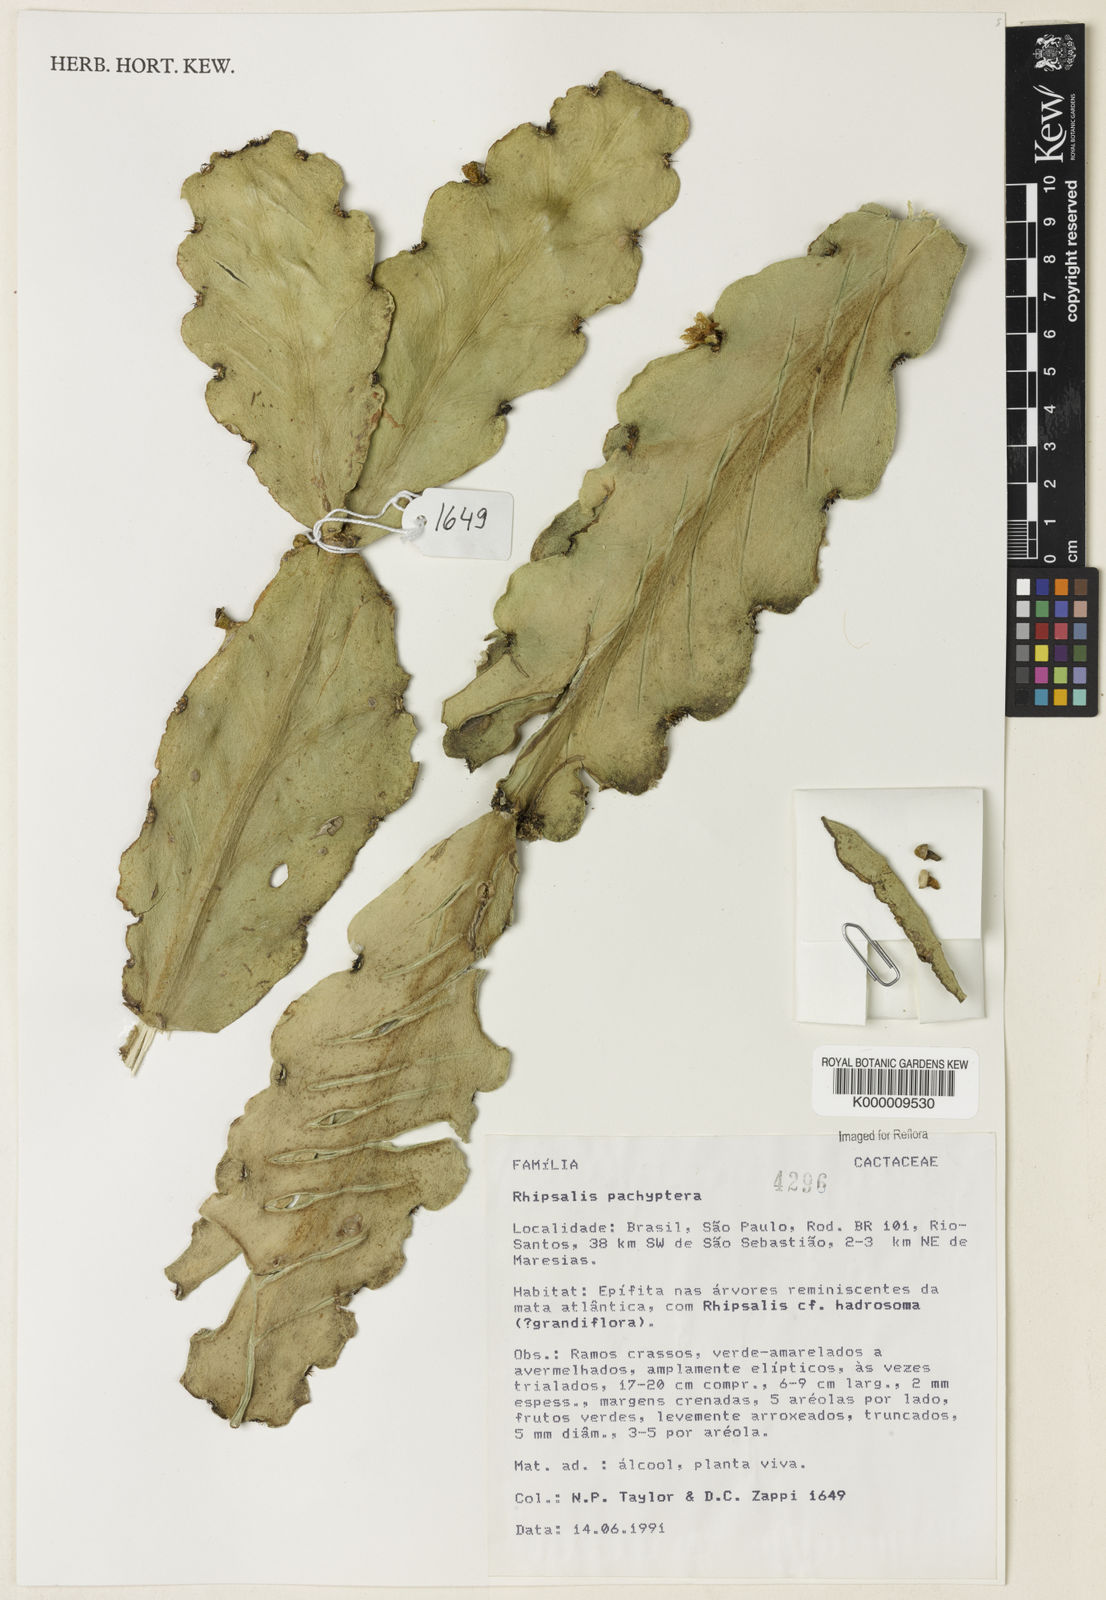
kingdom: Plantae
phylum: Tracheophyta
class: Magnoliopsida
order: Caryophyllales
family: Cactaceae
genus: Rhipsalis
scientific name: Rhipsalis pachyptera
